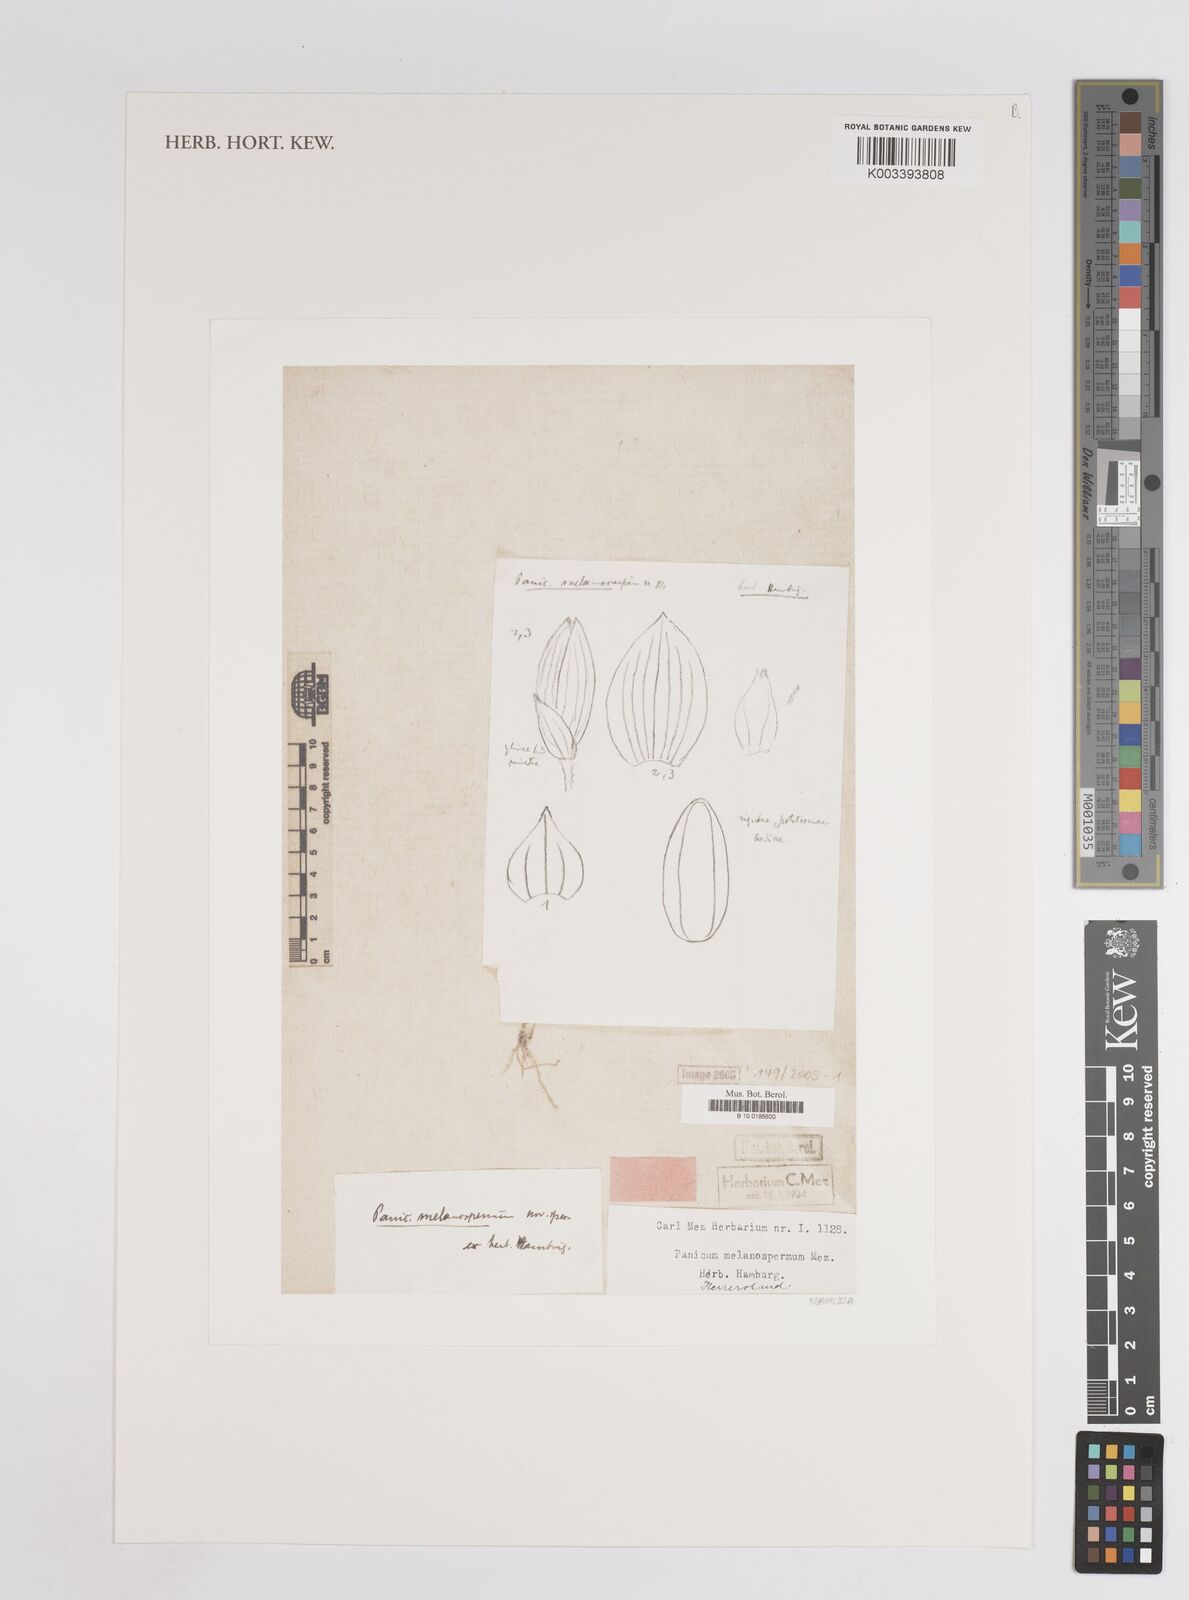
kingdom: Plantae
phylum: Tracheophyta
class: Liliopsida
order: Poales
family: Poaceae
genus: Panicum
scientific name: Panicum atrosanguineum
